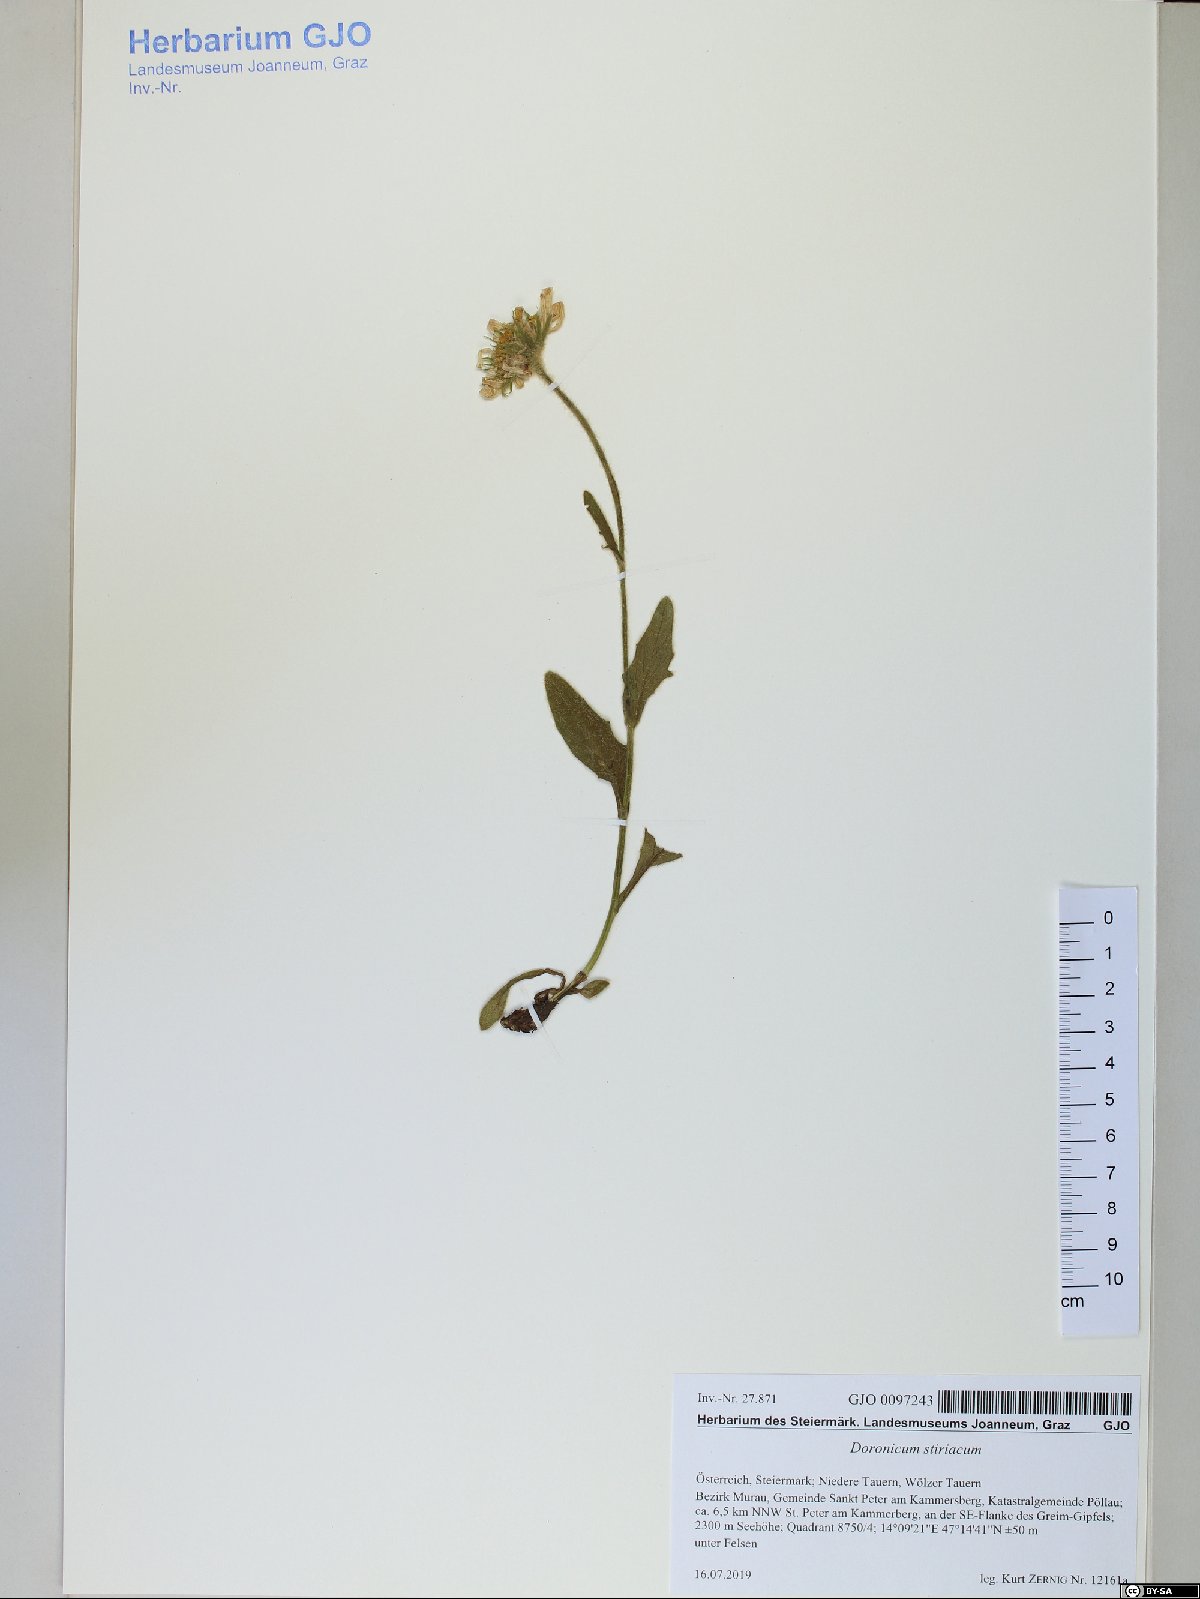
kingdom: Plantae
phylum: Tracheophyta
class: Magnoliopsida
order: Asterales
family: Asteraceae
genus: Doronicum
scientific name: Doronicum clusii
